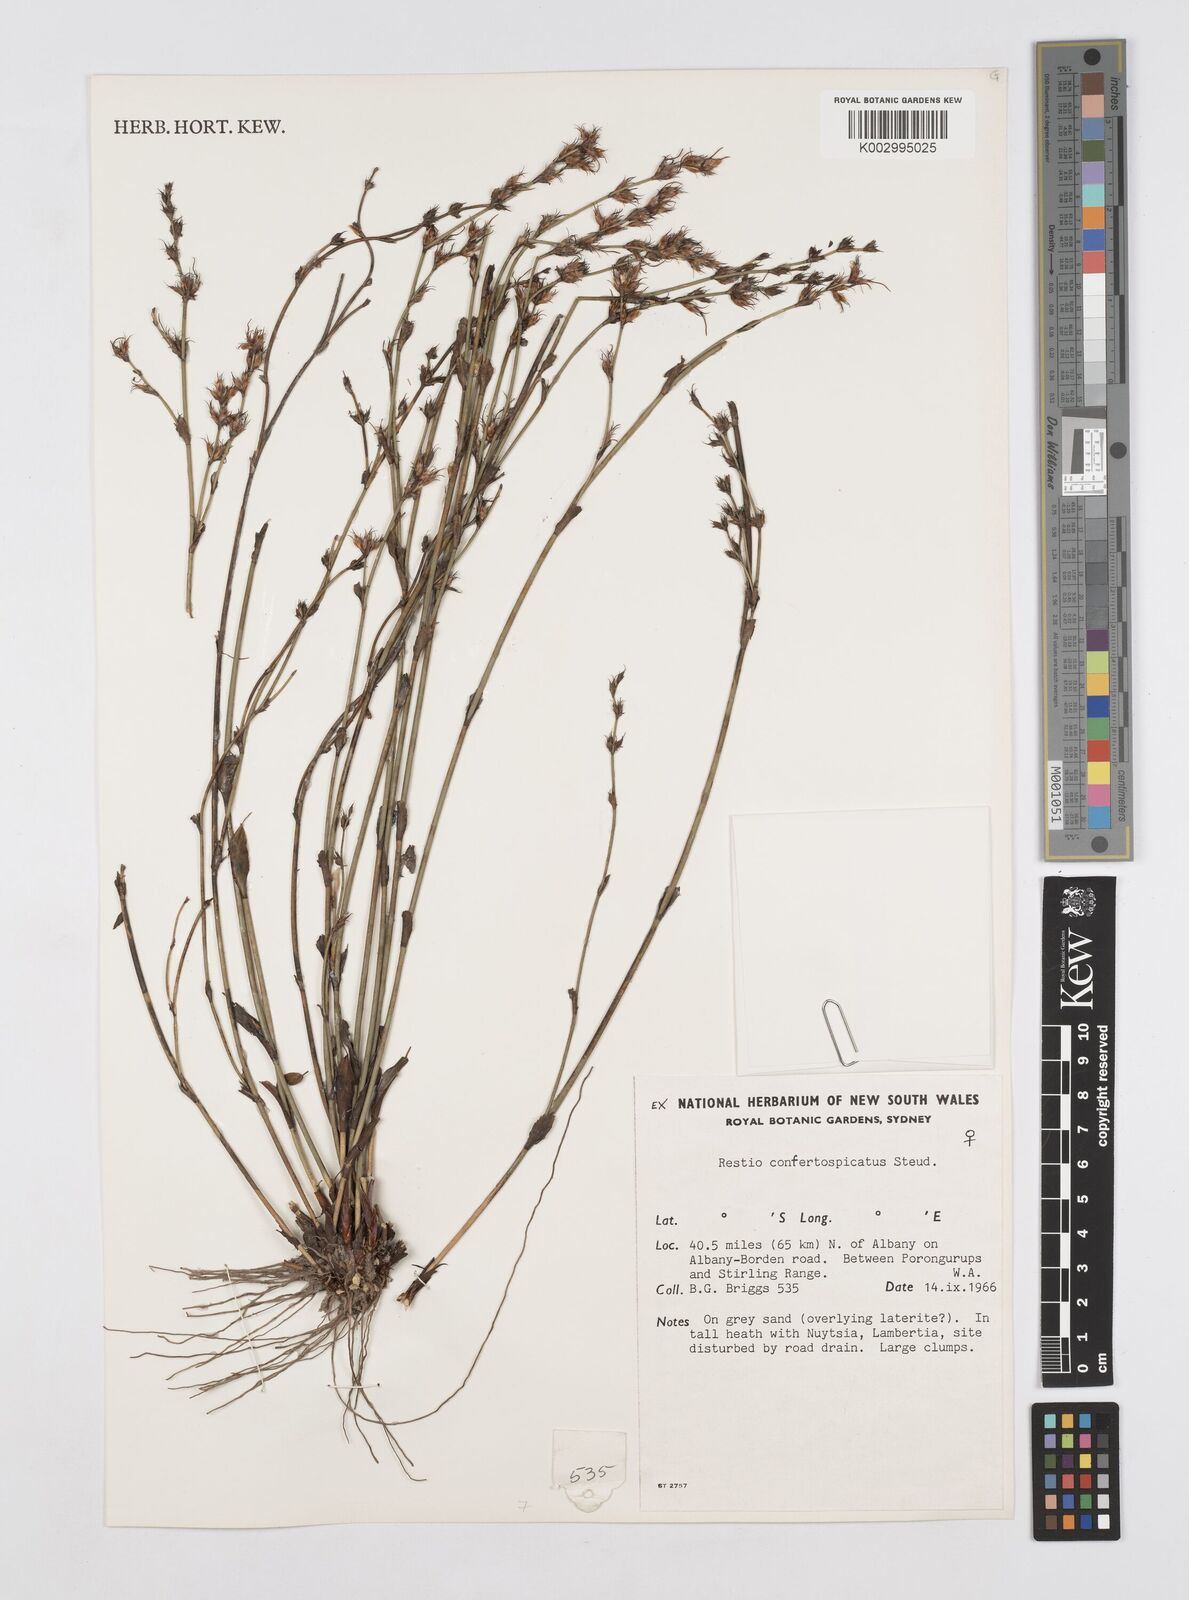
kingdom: Plantae
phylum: Tracheophyta
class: Liliopsida
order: Poales
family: Restionaceae
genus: Desmocladus
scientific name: Desmocladus confertospicatus
